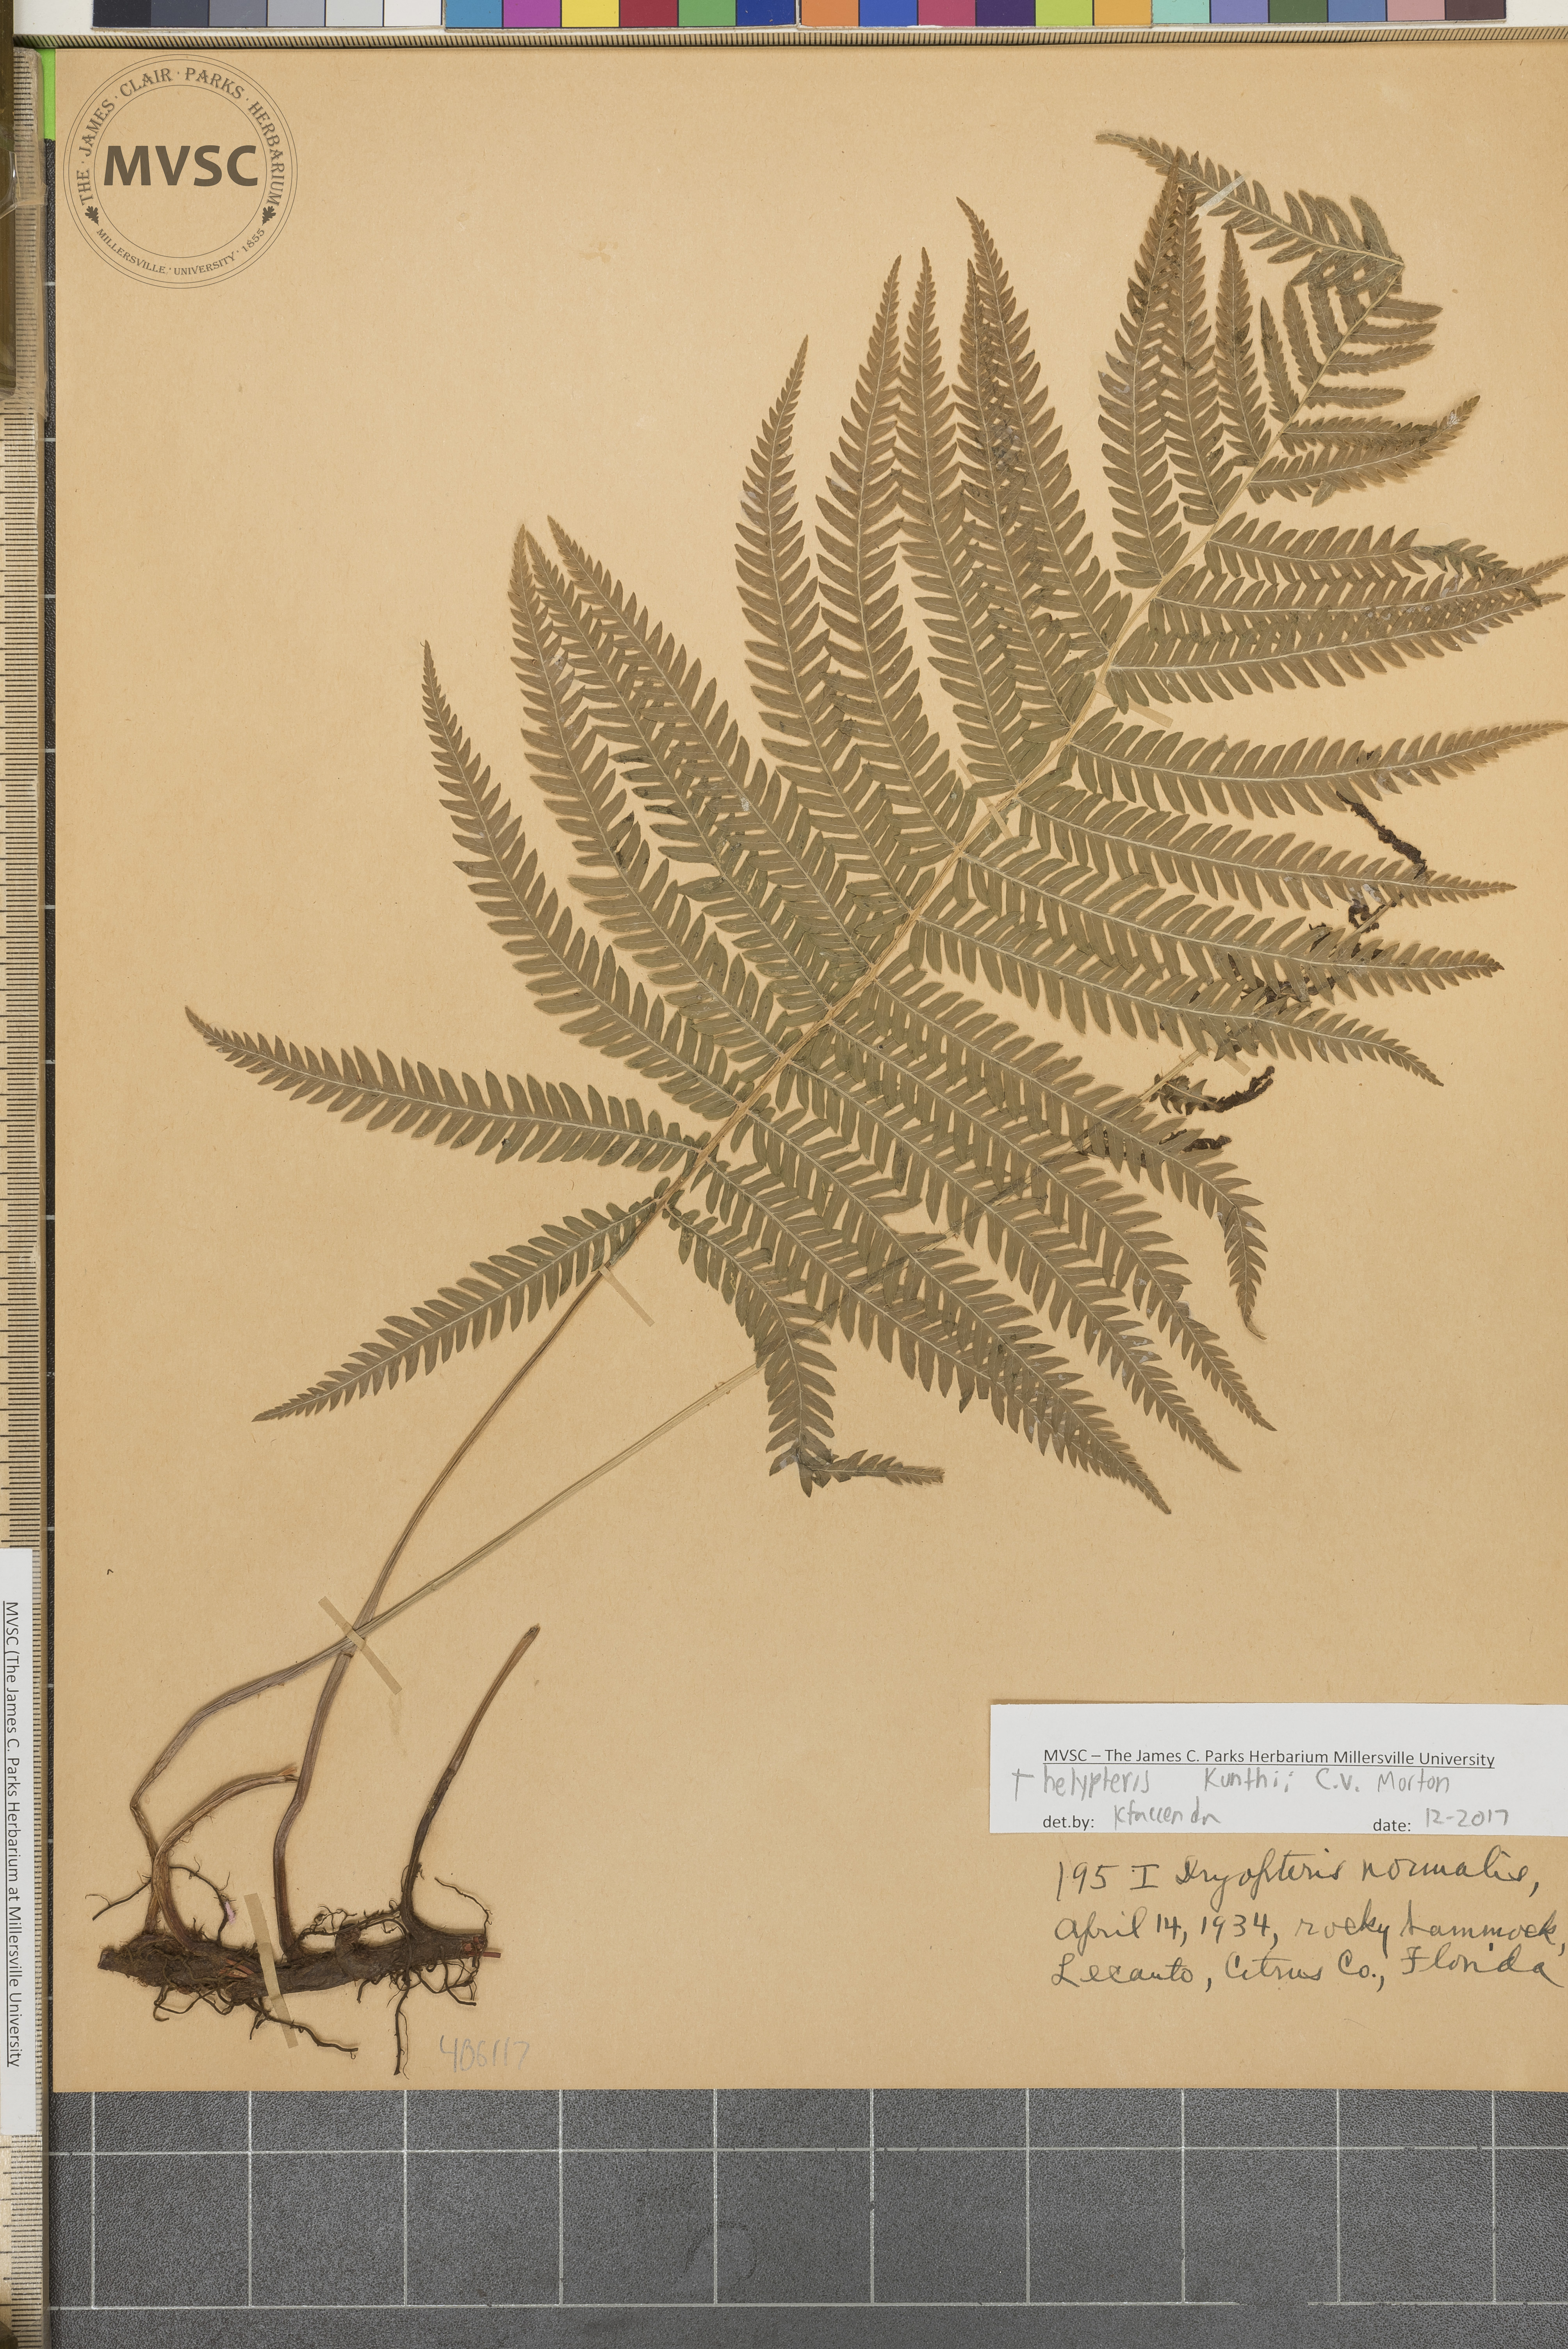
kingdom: Plantae
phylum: Tracheophyta
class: Polypodiopsida
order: Polypodiales
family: Thelypteridaceae
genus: Pelazoneuron
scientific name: Pelazoneuron kunthii
